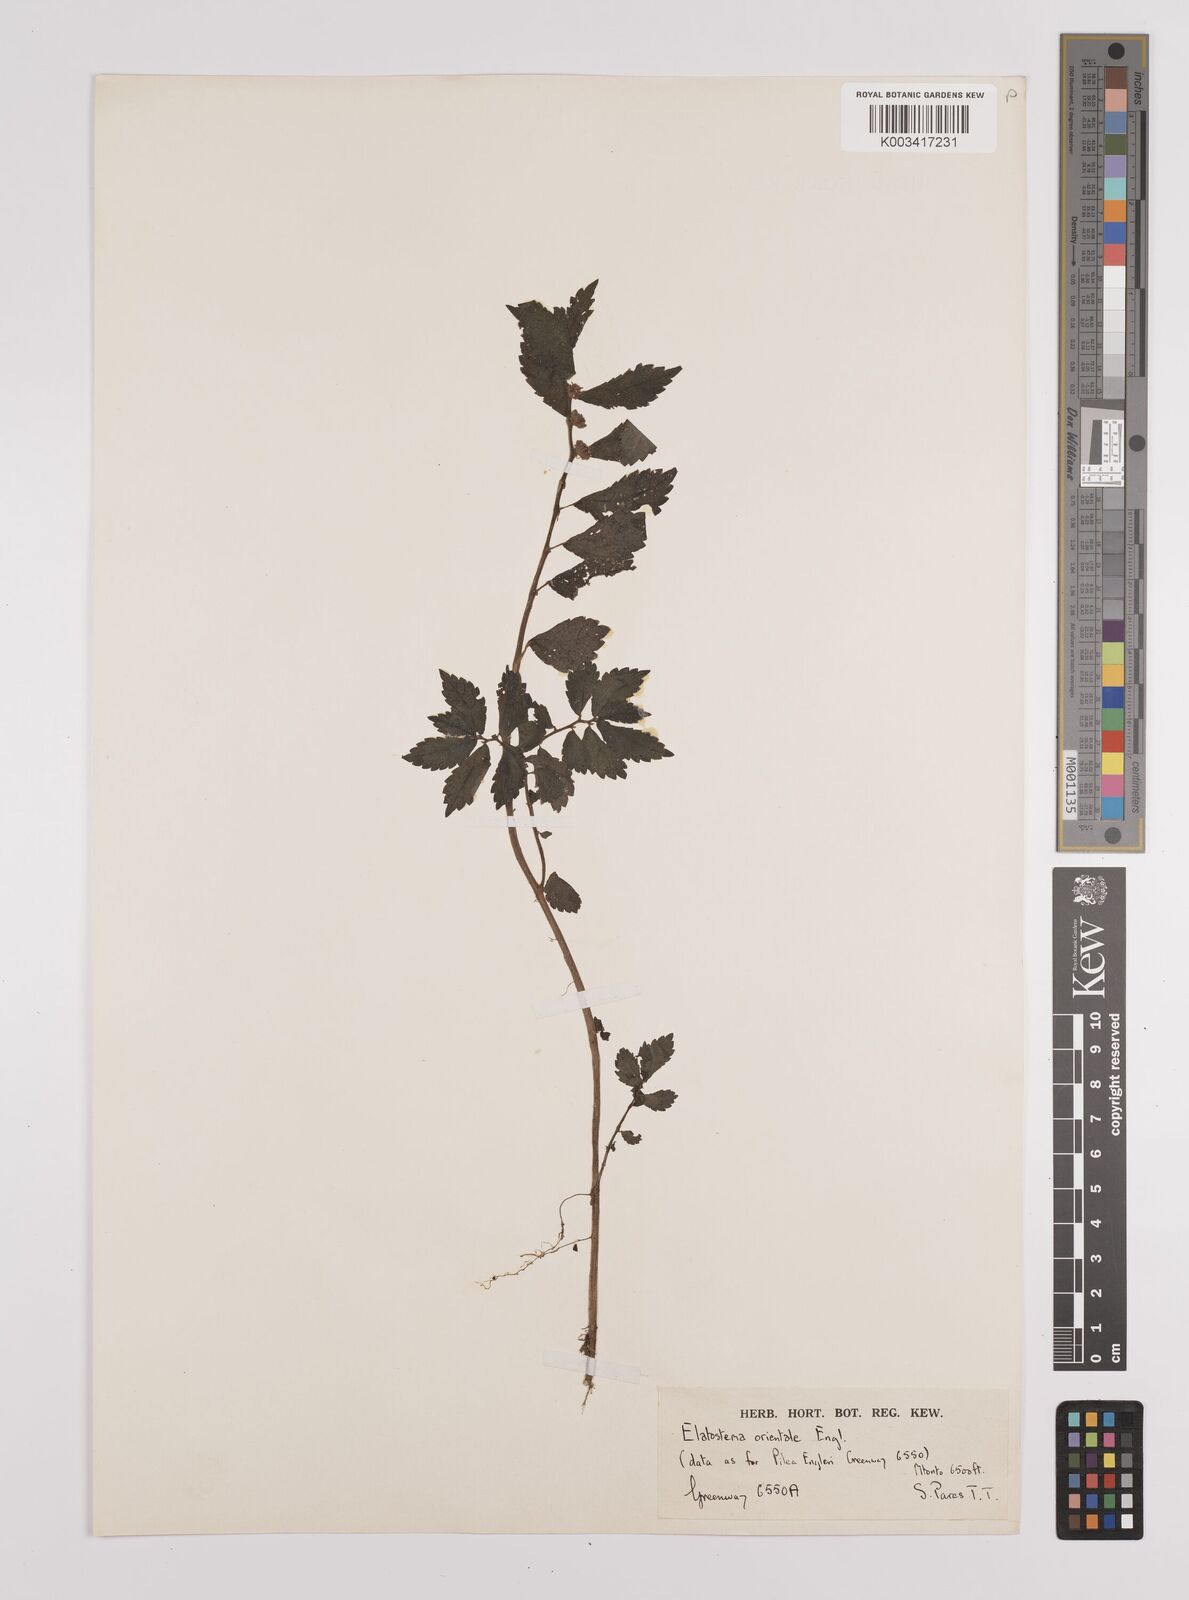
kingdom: Plantae
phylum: Tracheophyta
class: Magnoliopsida
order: Rosales
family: Urticaceae
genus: Elatostema
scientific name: Elatostema monticola
